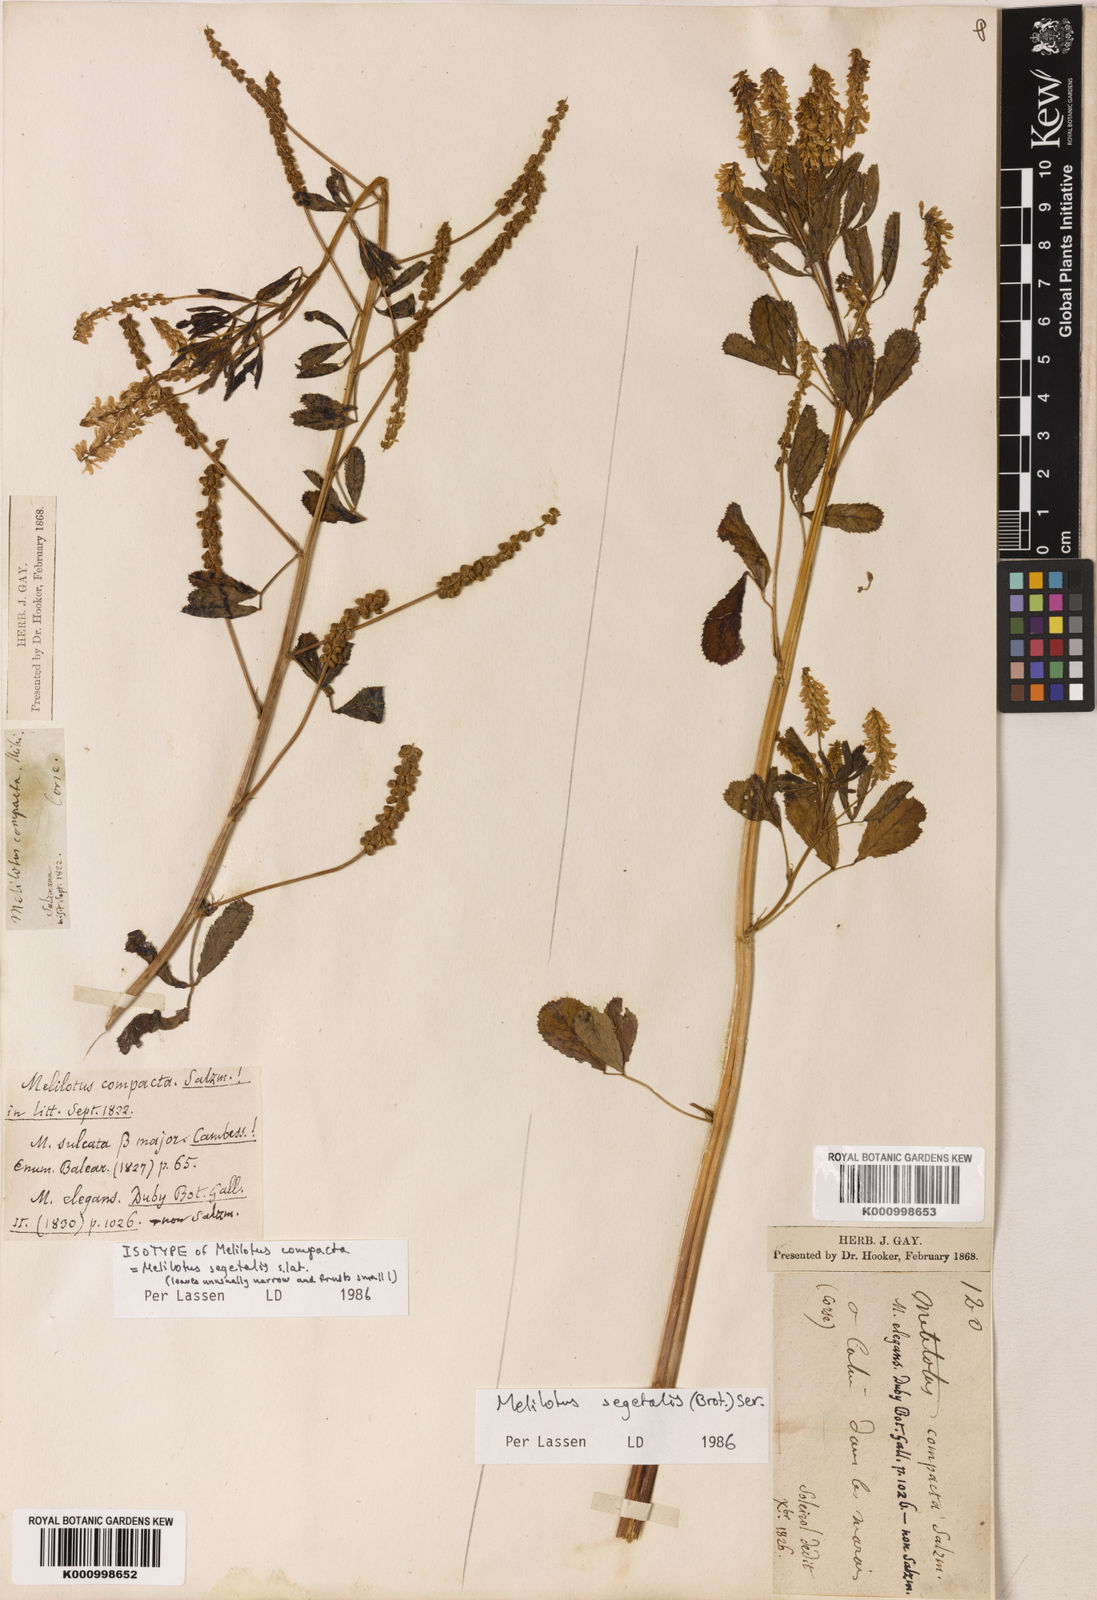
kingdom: Plantae
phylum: Tracheophyta
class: Magnoliopsida
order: Fabales
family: Fabaceae
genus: Melilotus
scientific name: Melilotus segetalis
